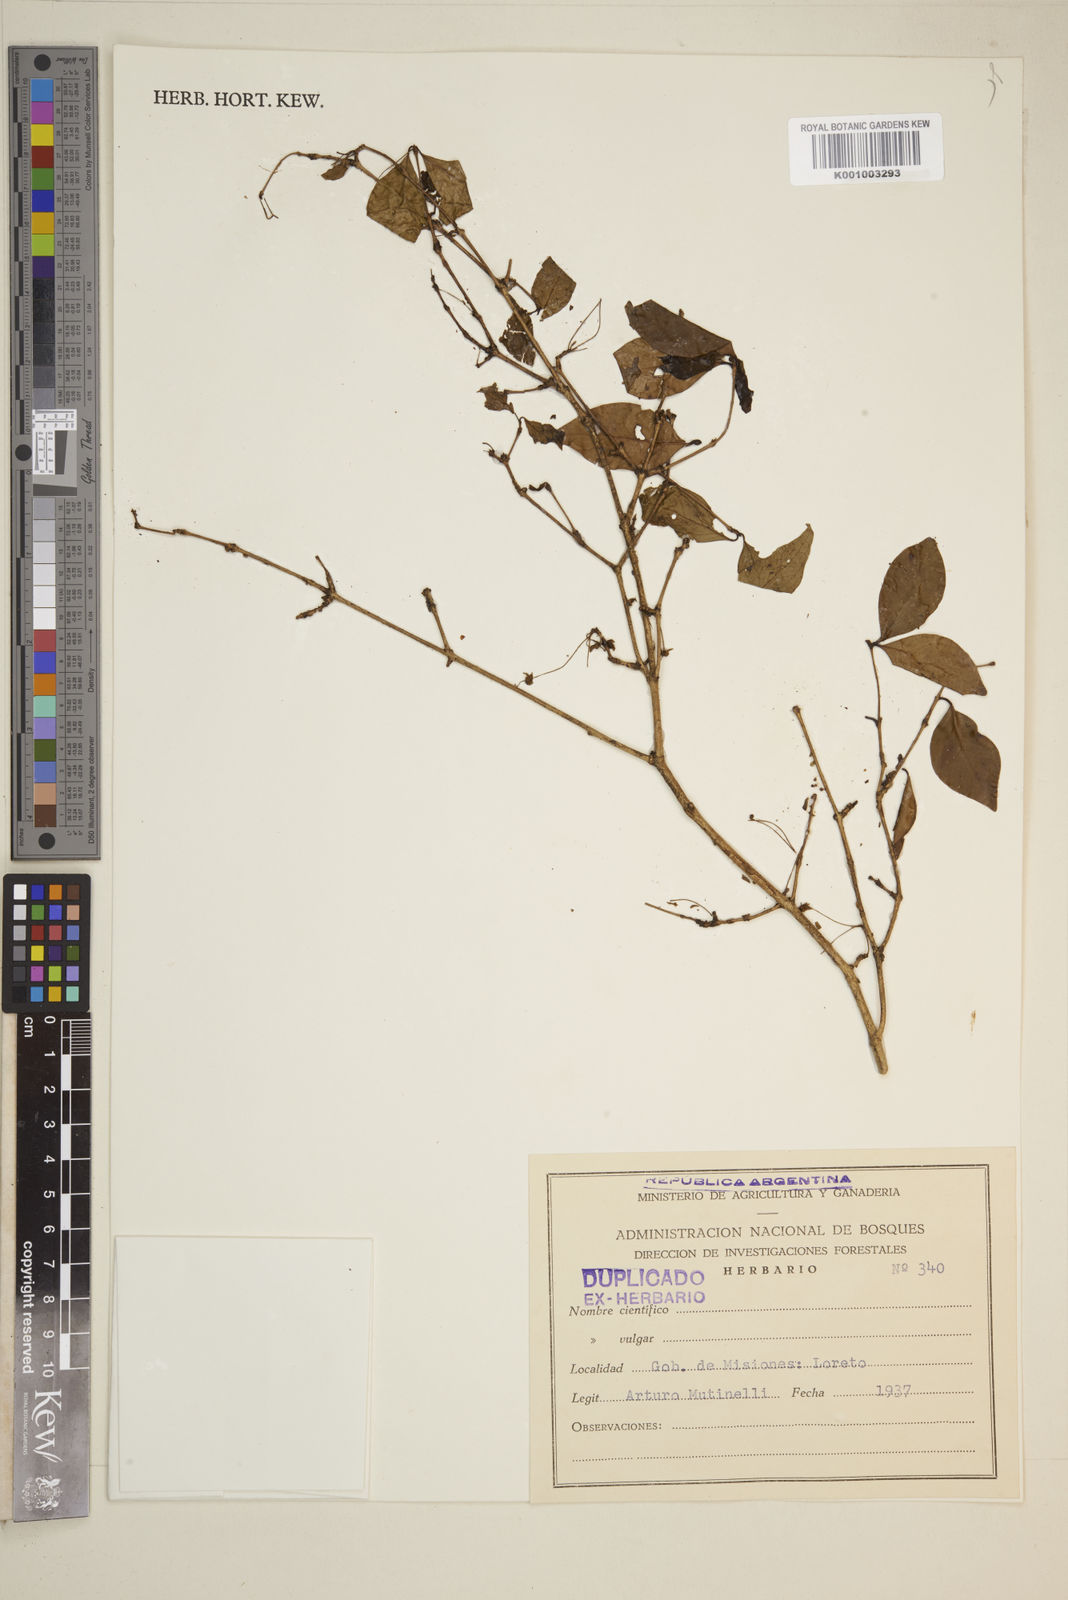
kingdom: Plantae
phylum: Tracheophyta
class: Magnoliopsida
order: Myrtales
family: Myrtaceae
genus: Eugenia
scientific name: Eugenia
